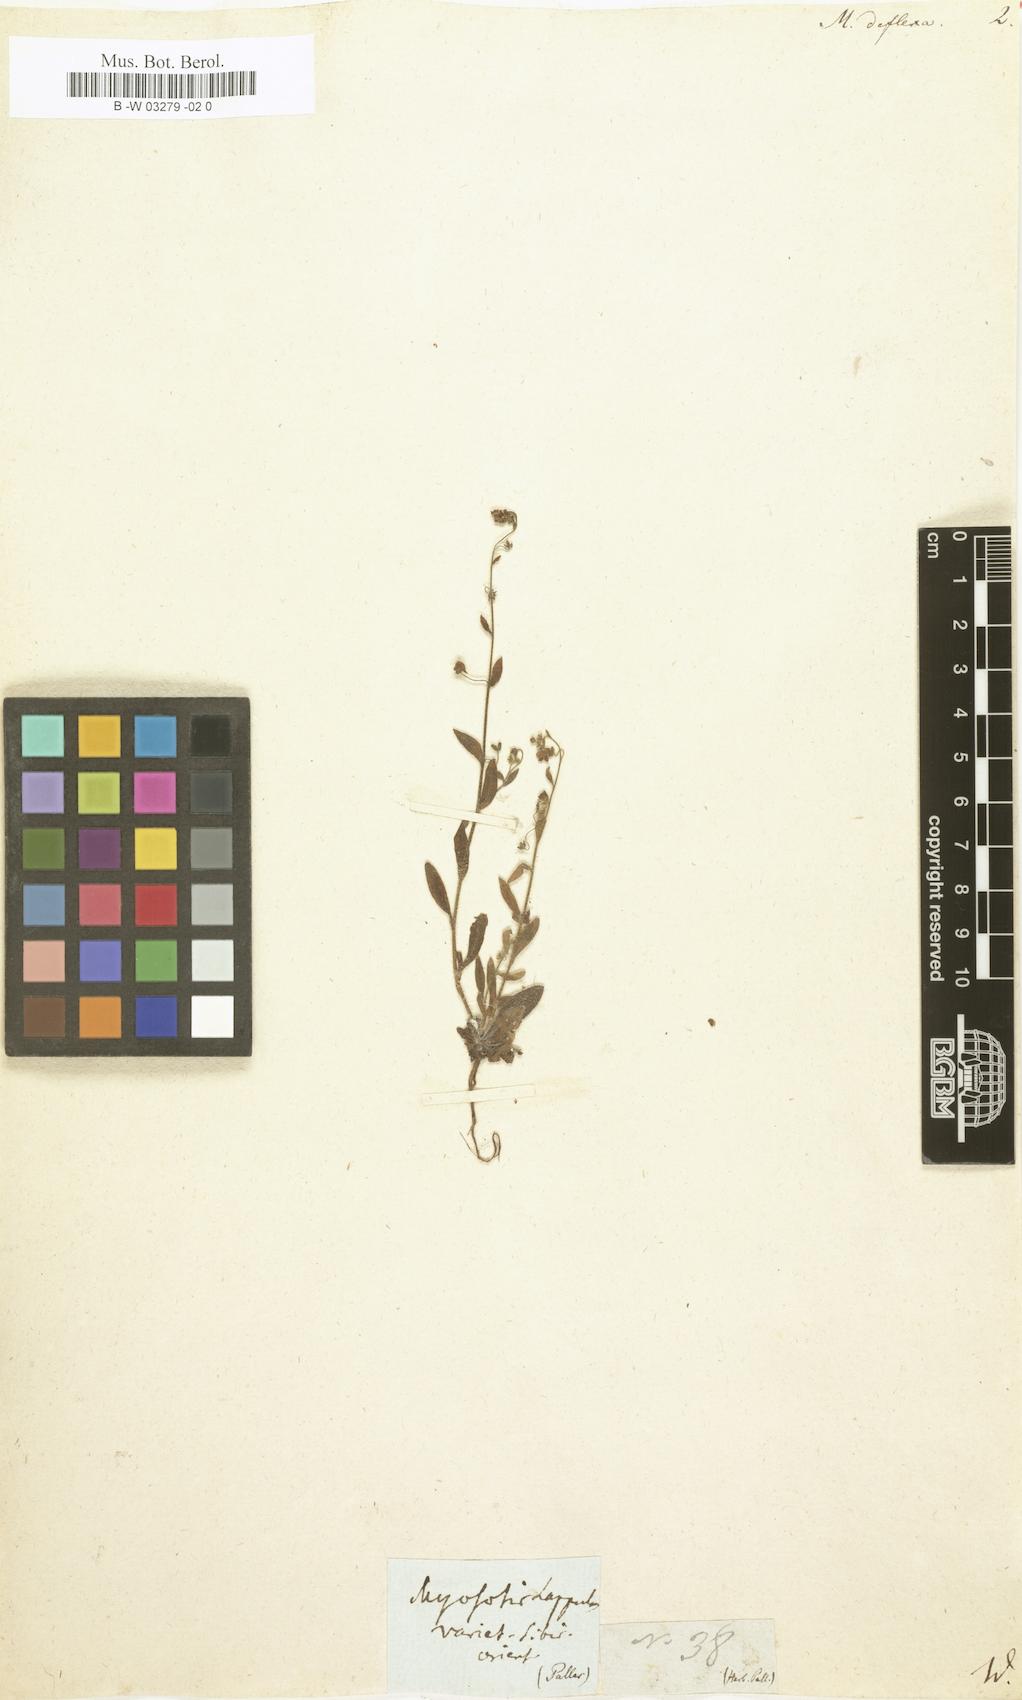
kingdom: Plantae
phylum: Tracheophyta
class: Magnoliopsida
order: Boraginales
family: Boraginaceae
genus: Myosotis
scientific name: Myosotis
